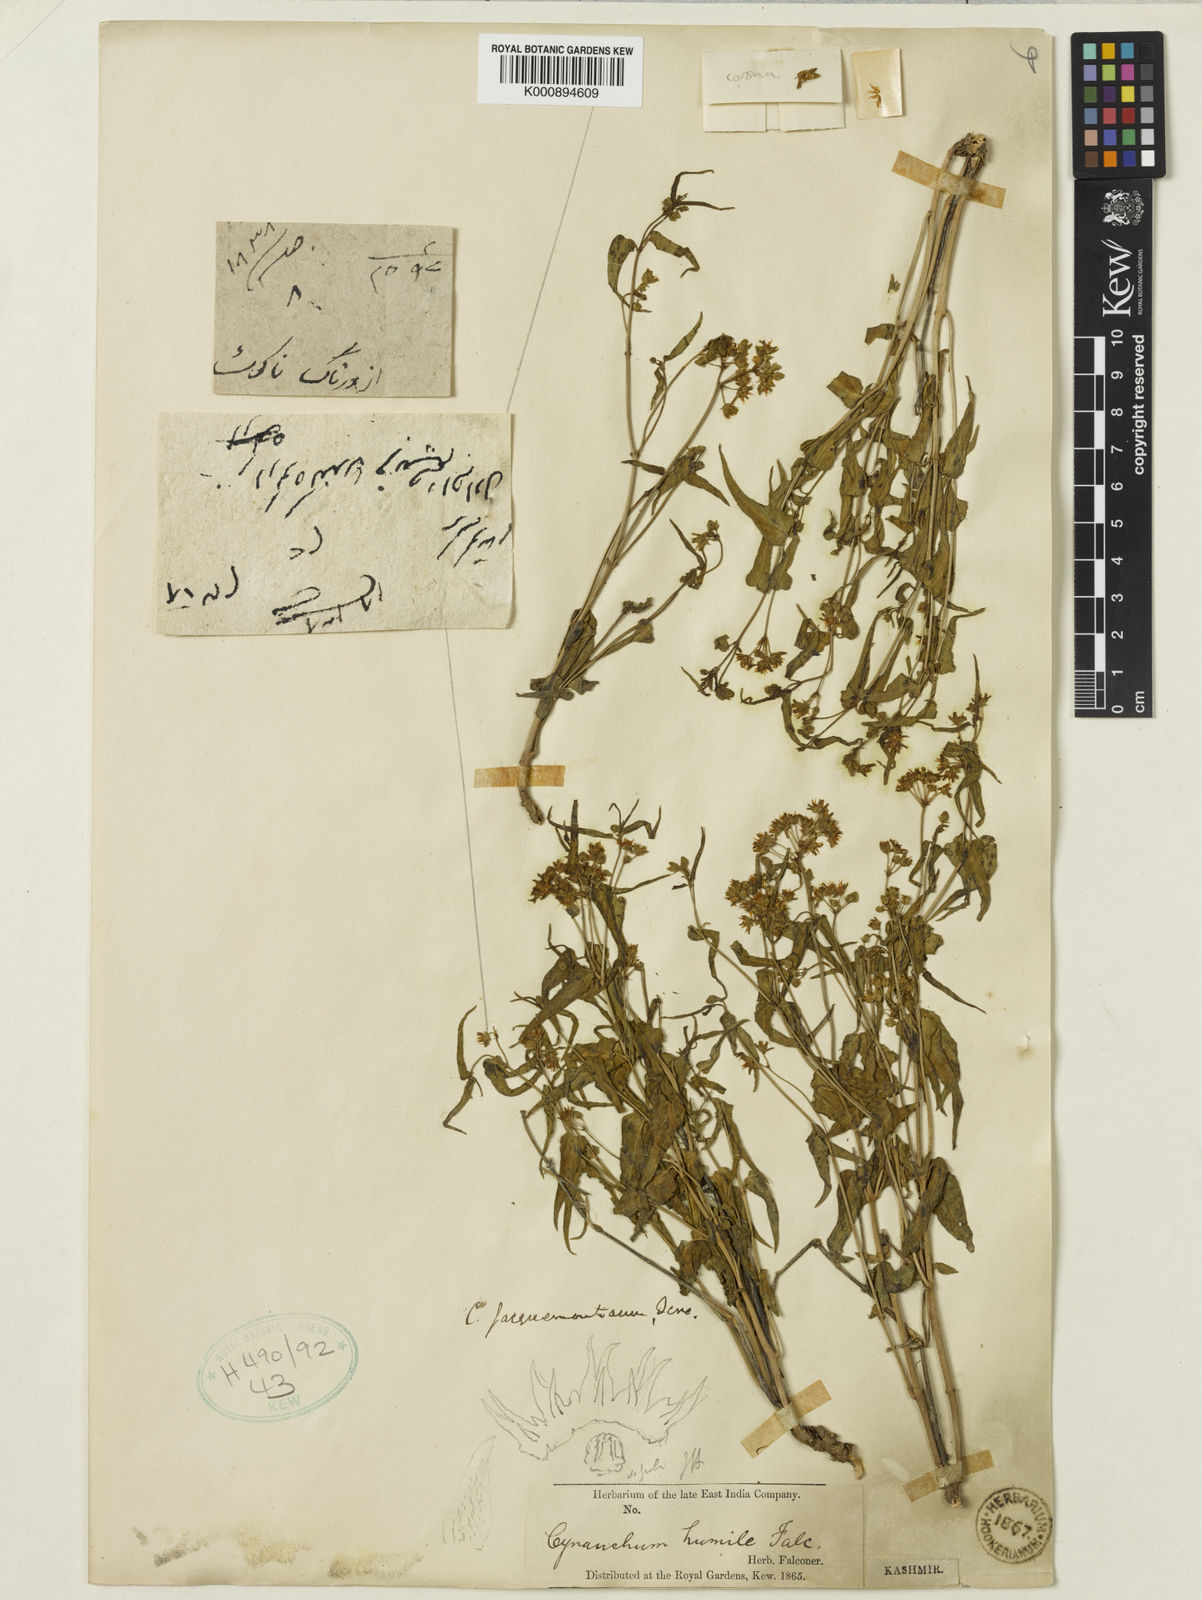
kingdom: Plantae
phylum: Tracheophyta
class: Magnoliopsida
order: Gentianales
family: Apocynaceae
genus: Vincetoxicum
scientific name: Vincetoxicum jacquemontianum
